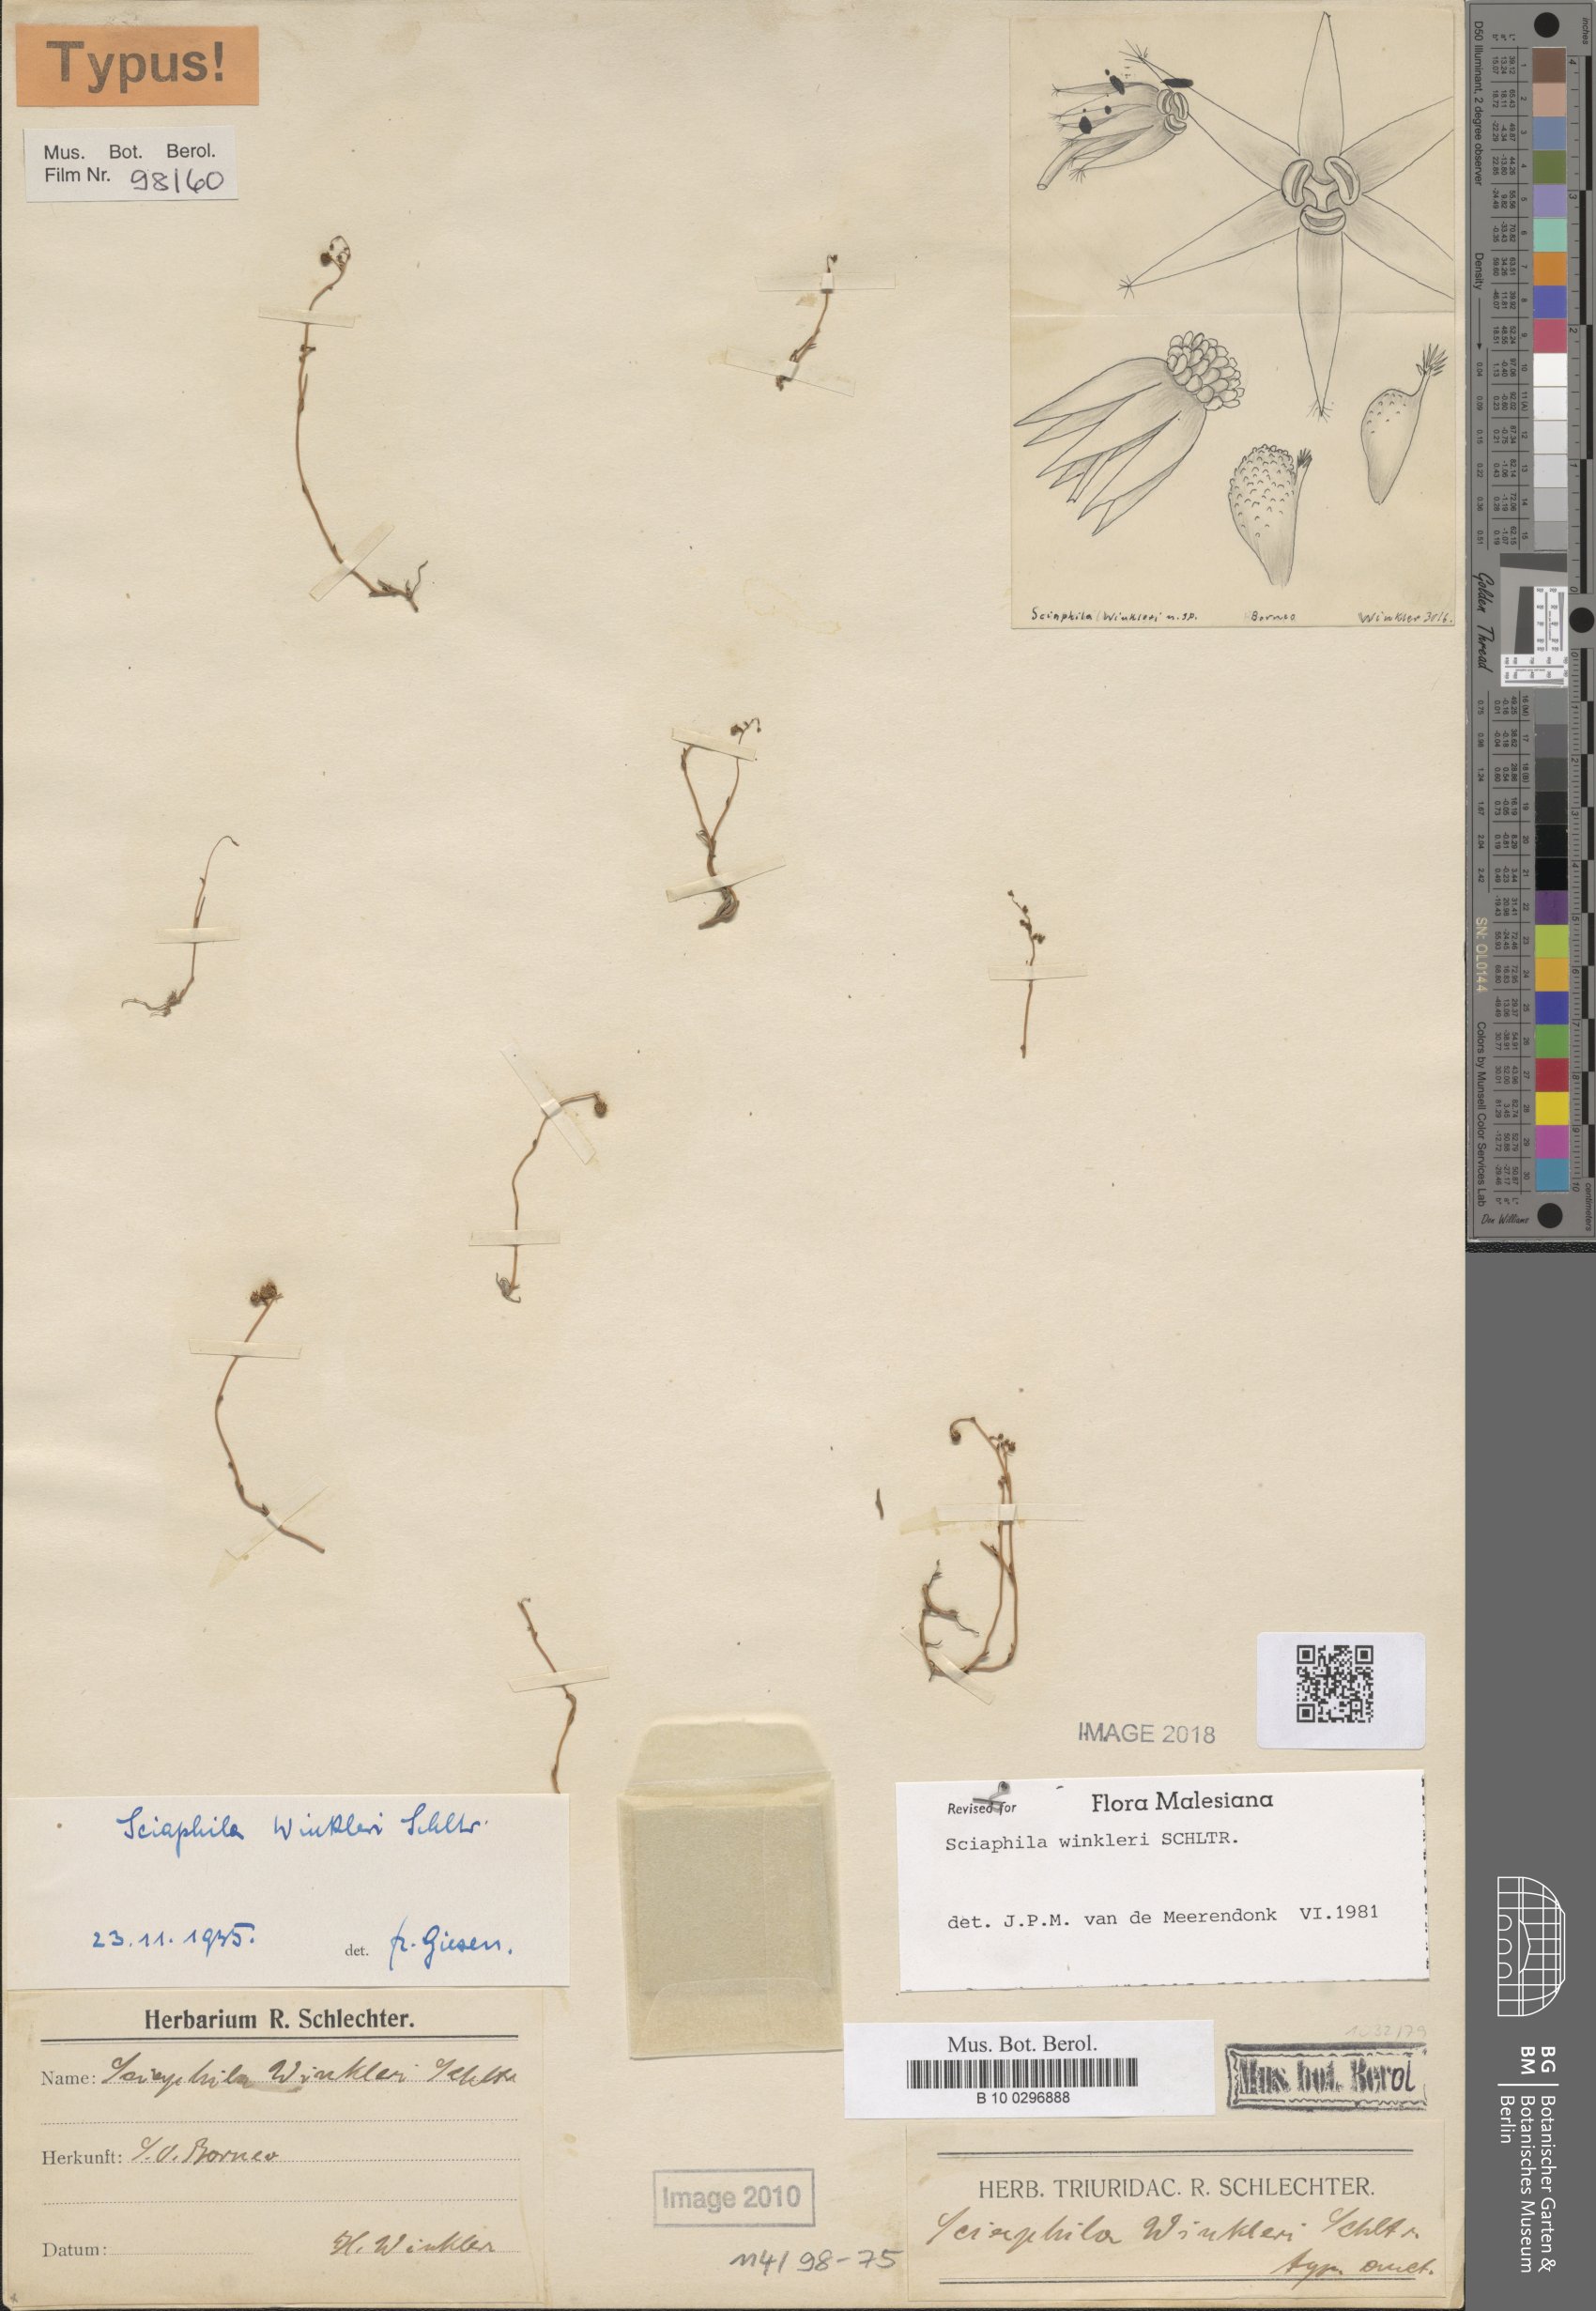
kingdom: Plantae
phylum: Tracheophyta
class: Liliopsida
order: Pandanales
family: Triuridaceae
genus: Sciaphila
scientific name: Sciaphila winkleri
